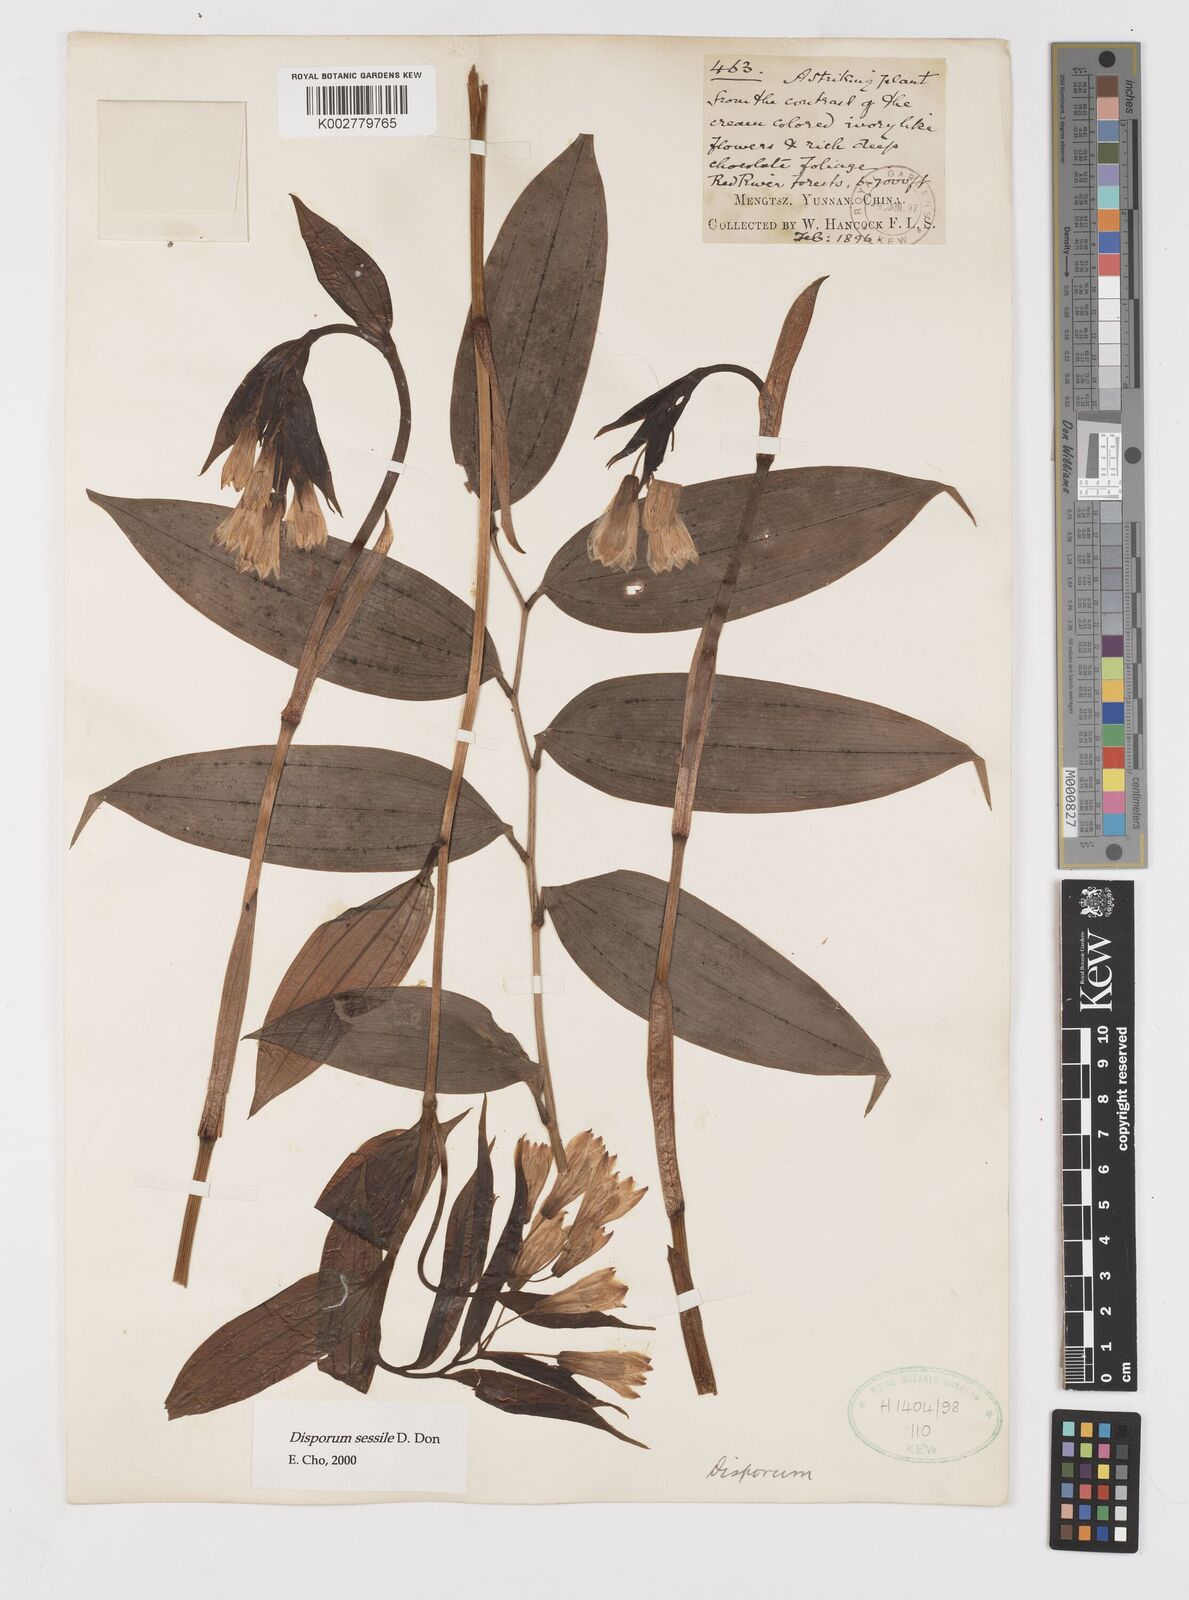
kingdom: Plantae
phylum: Tracheophyta
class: Liliopsida
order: Liliales
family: Colchicaceae
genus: Disporum
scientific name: Disporum sessile
